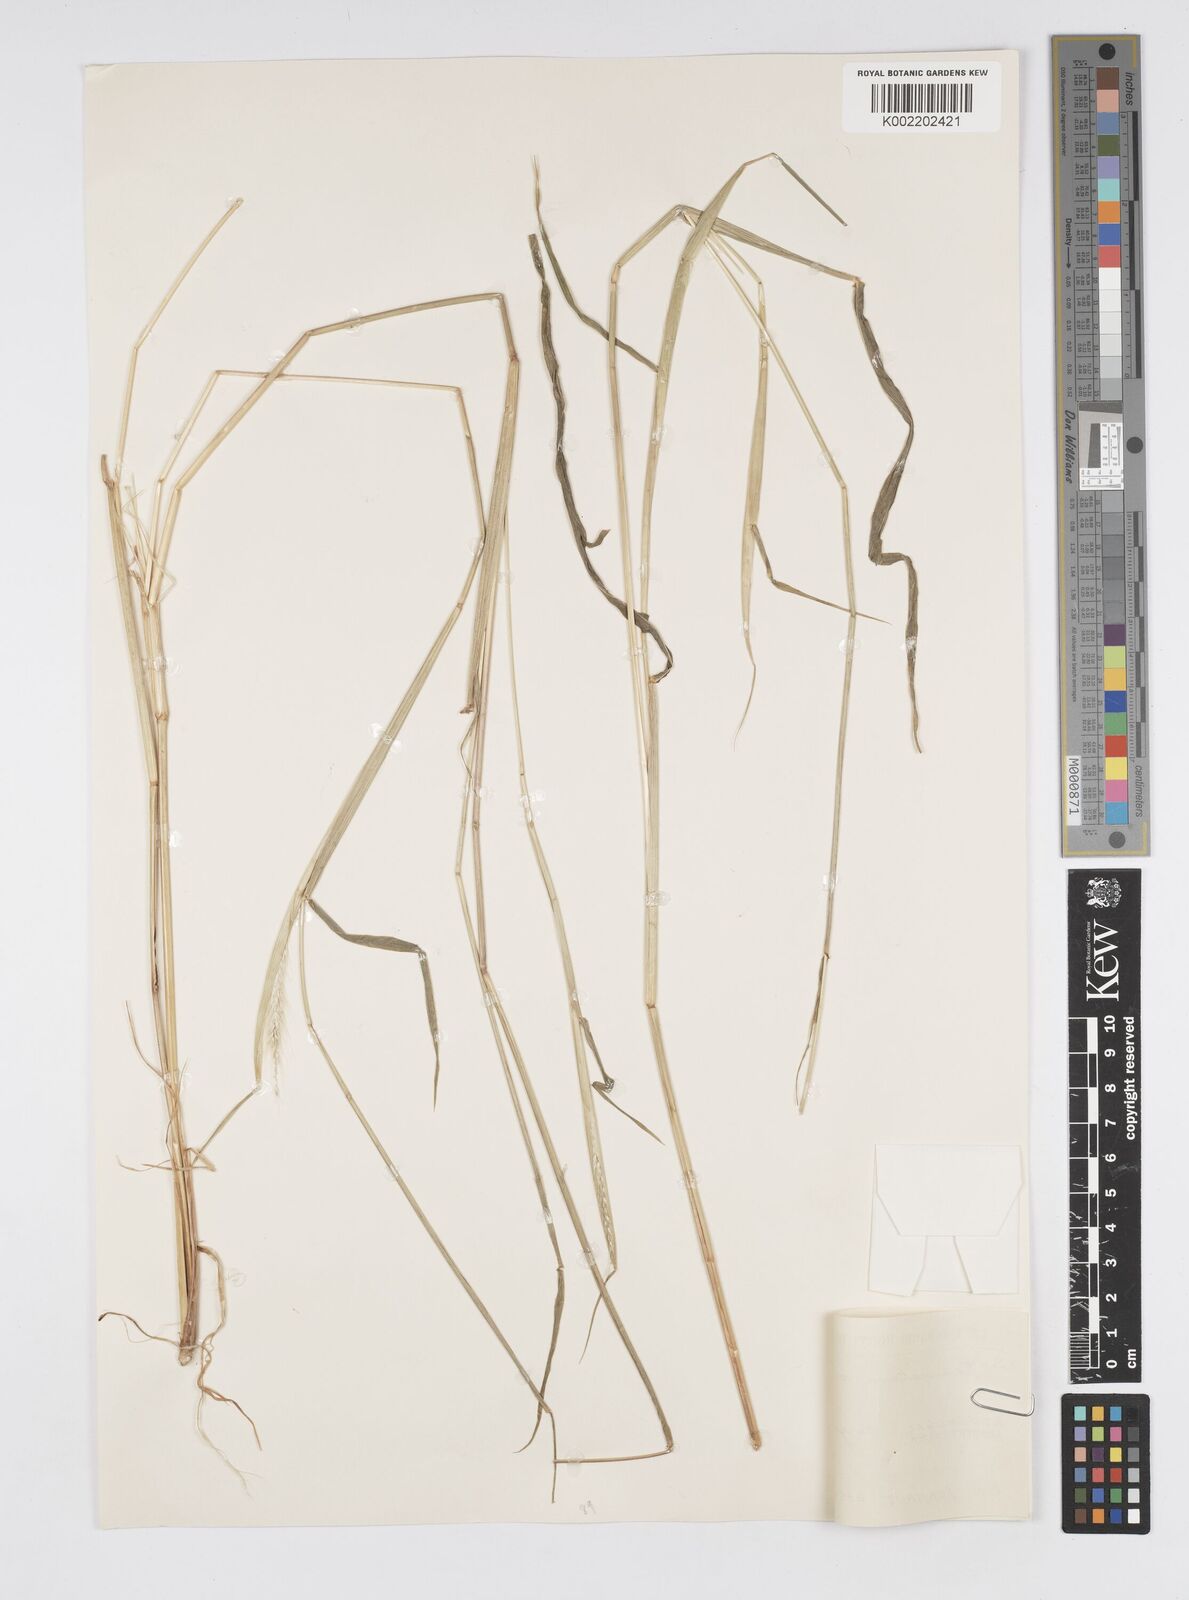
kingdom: Plantae
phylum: Tracheophyta
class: Liliopsida
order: Poales
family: Poaceae
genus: Setaria
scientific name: Setaria parviflora
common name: Knotroot bristle-grass
